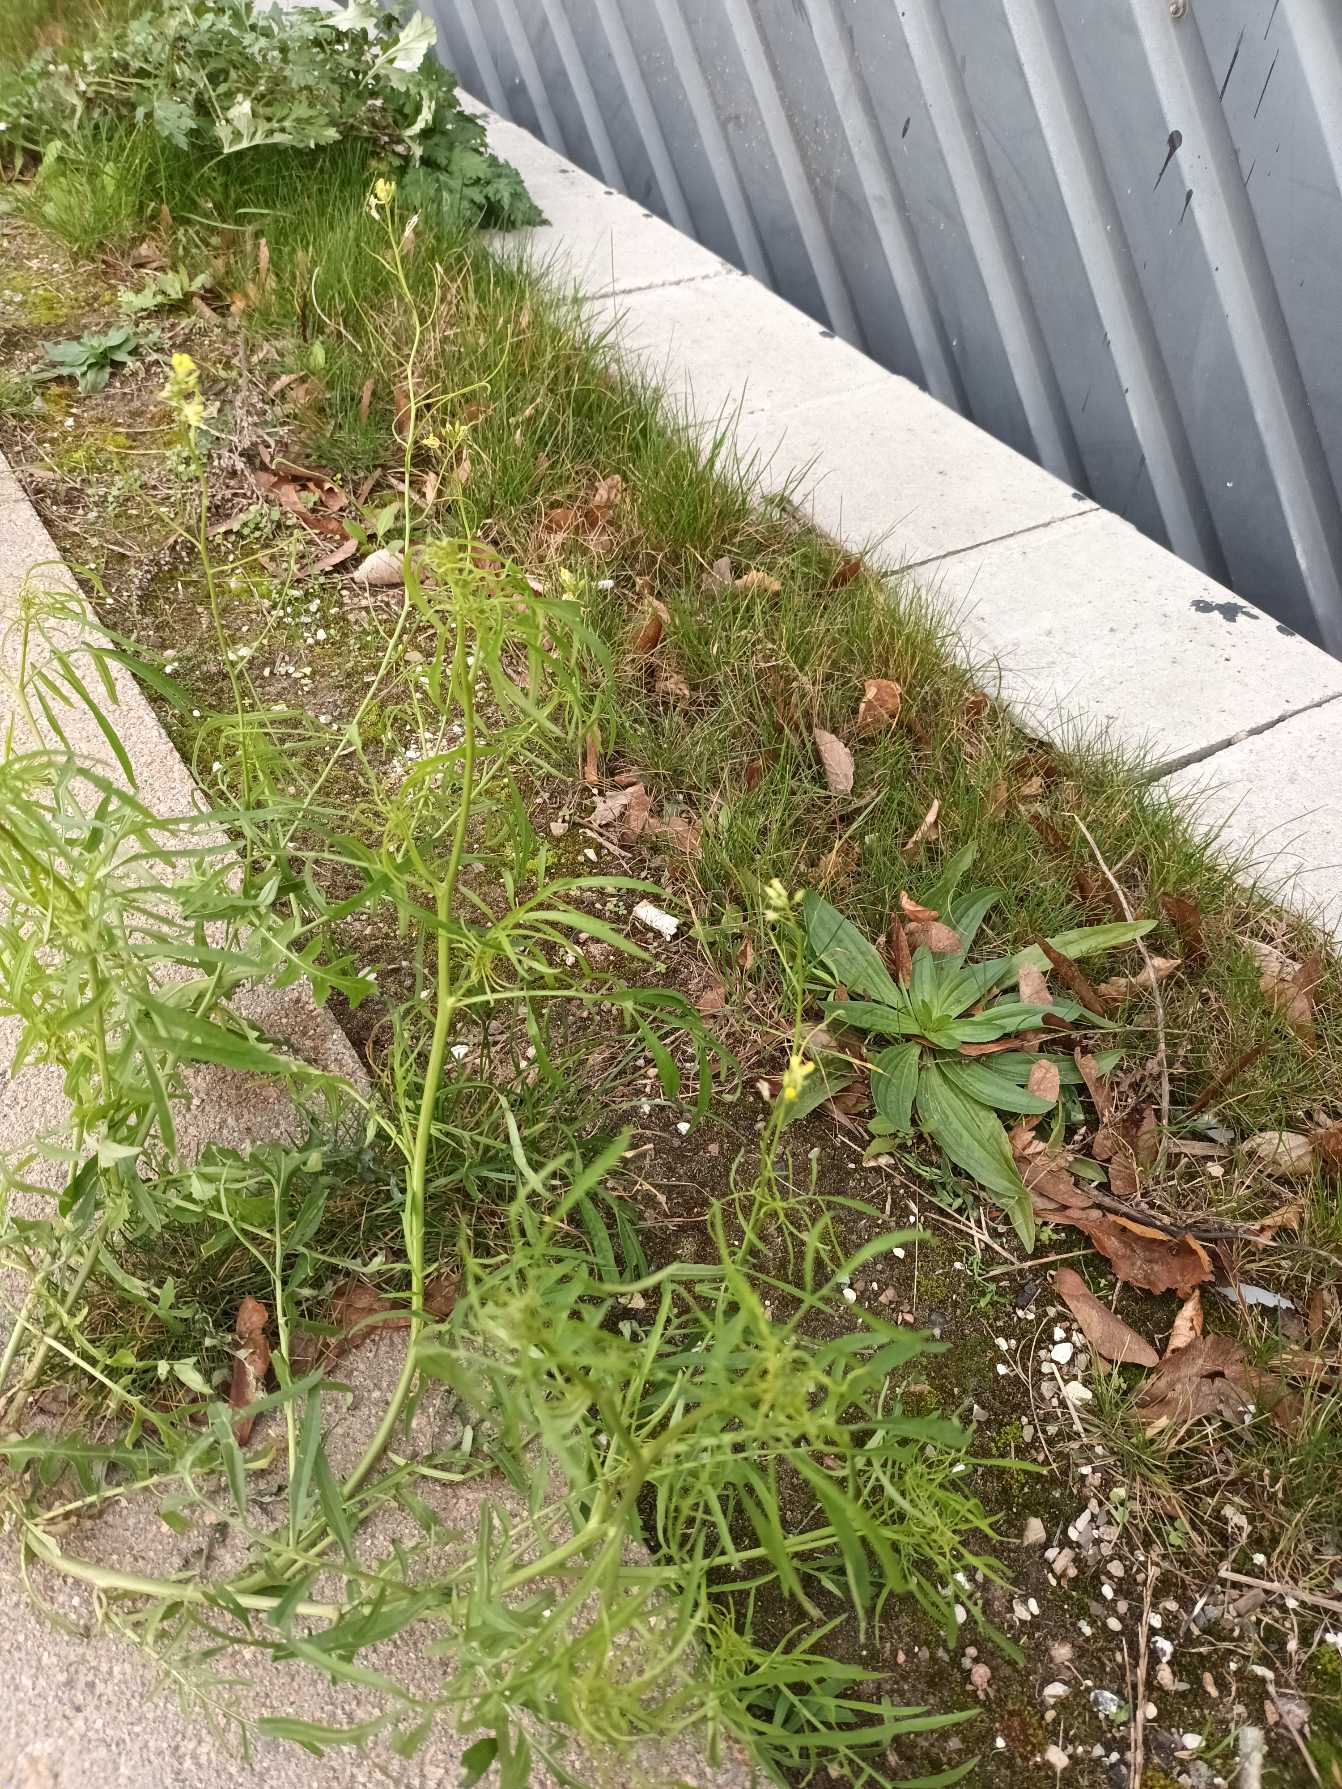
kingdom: Plantae
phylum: Tracheophyta
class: Magnoliopsida
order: Brassicales
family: Brassicaceae
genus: Sisymbrium
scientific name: Sisymbrium altissimum
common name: Ungarsk vejsennep
